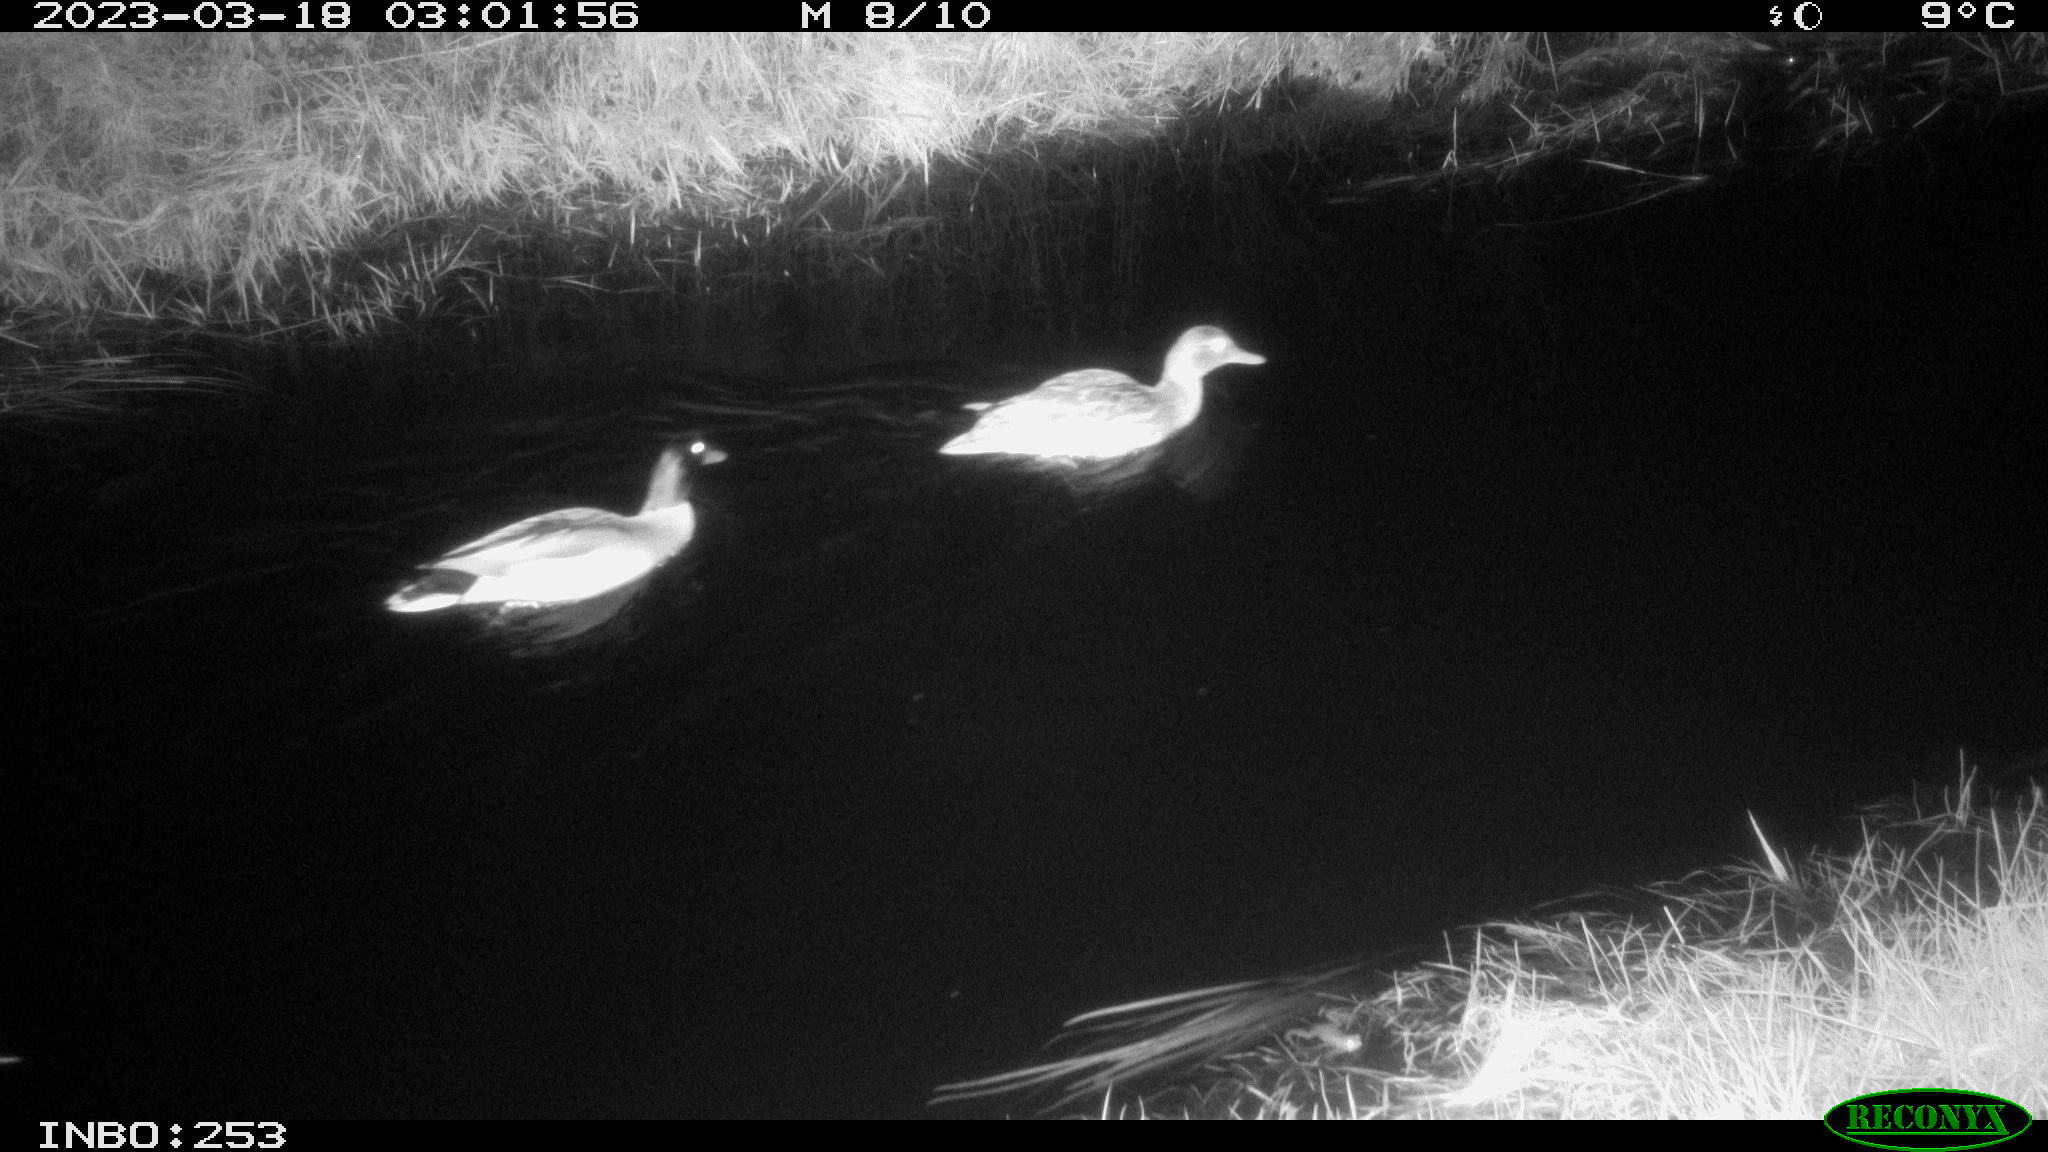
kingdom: Animalia
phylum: Chordata
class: Aves
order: Anseriformes
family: Anatidae
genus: Anas
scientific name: Anas
